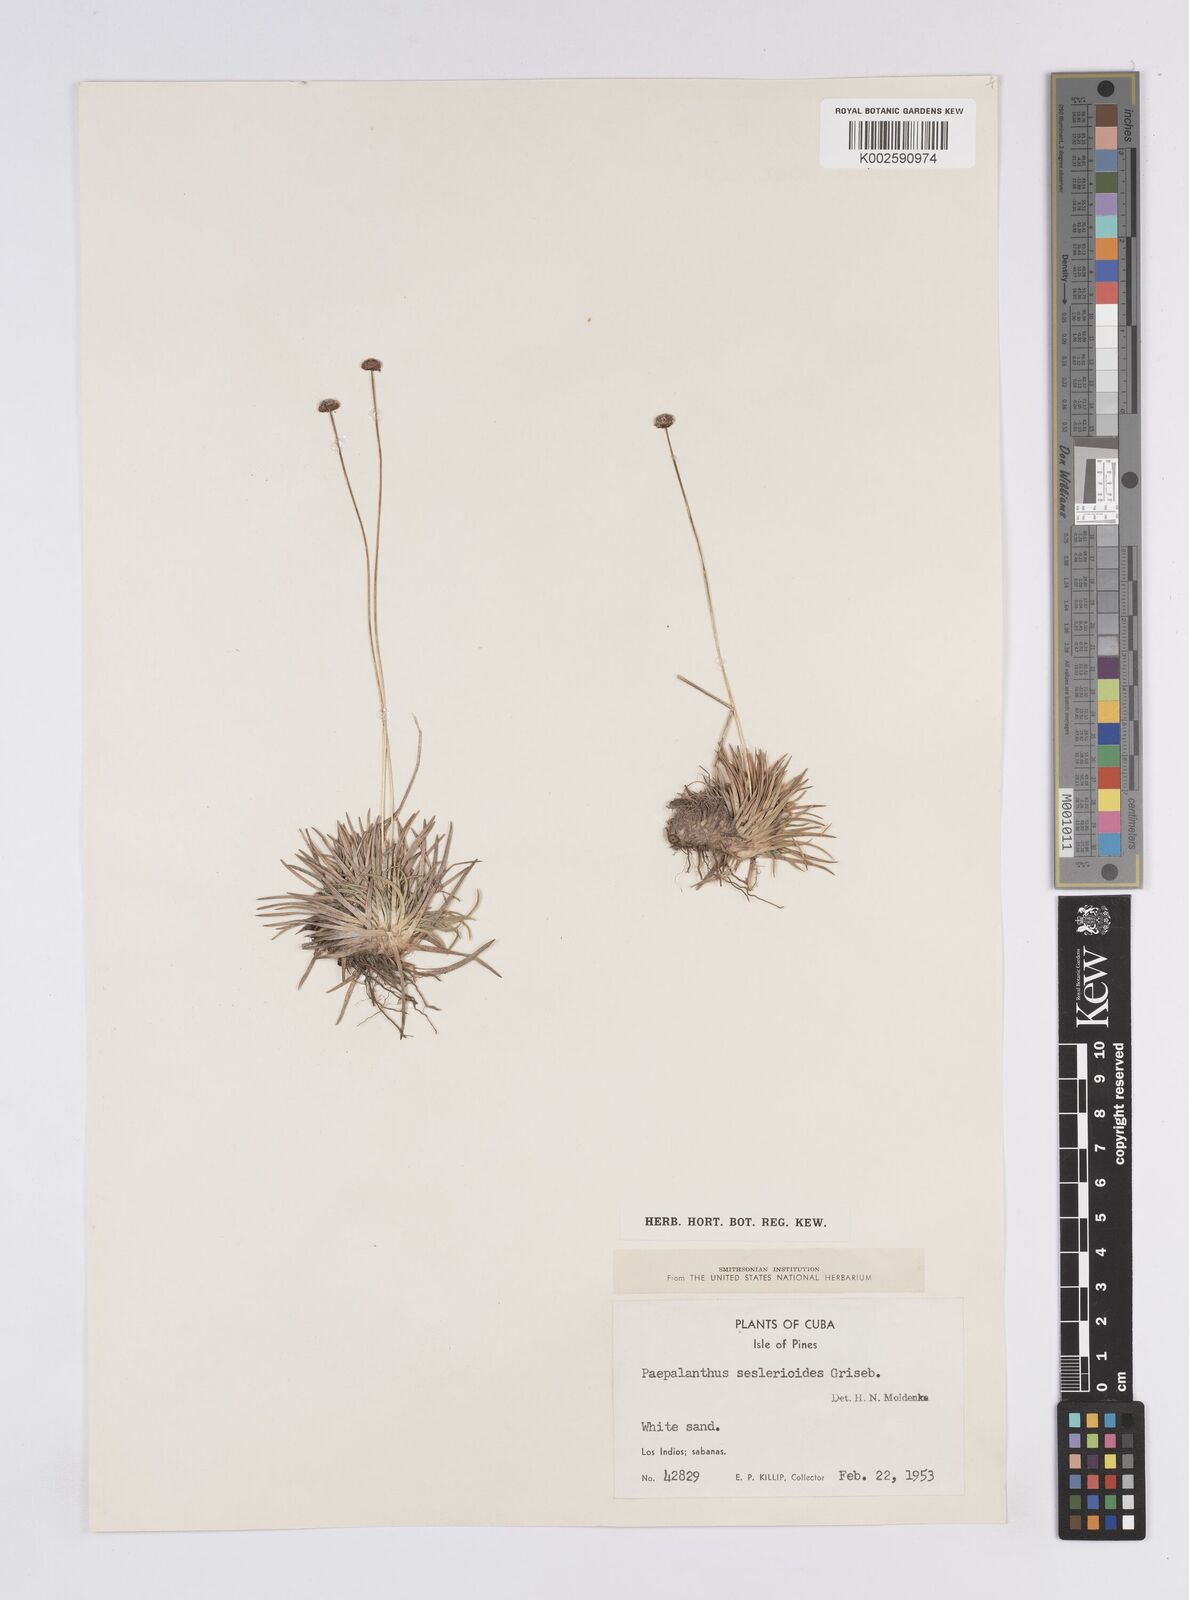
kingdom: Plantae
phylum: Tracheophyta
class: Liliopsida
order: Poales
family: Eriocaulaceae
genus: Paepalanthus
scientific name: Paepalanthus seslerioides
